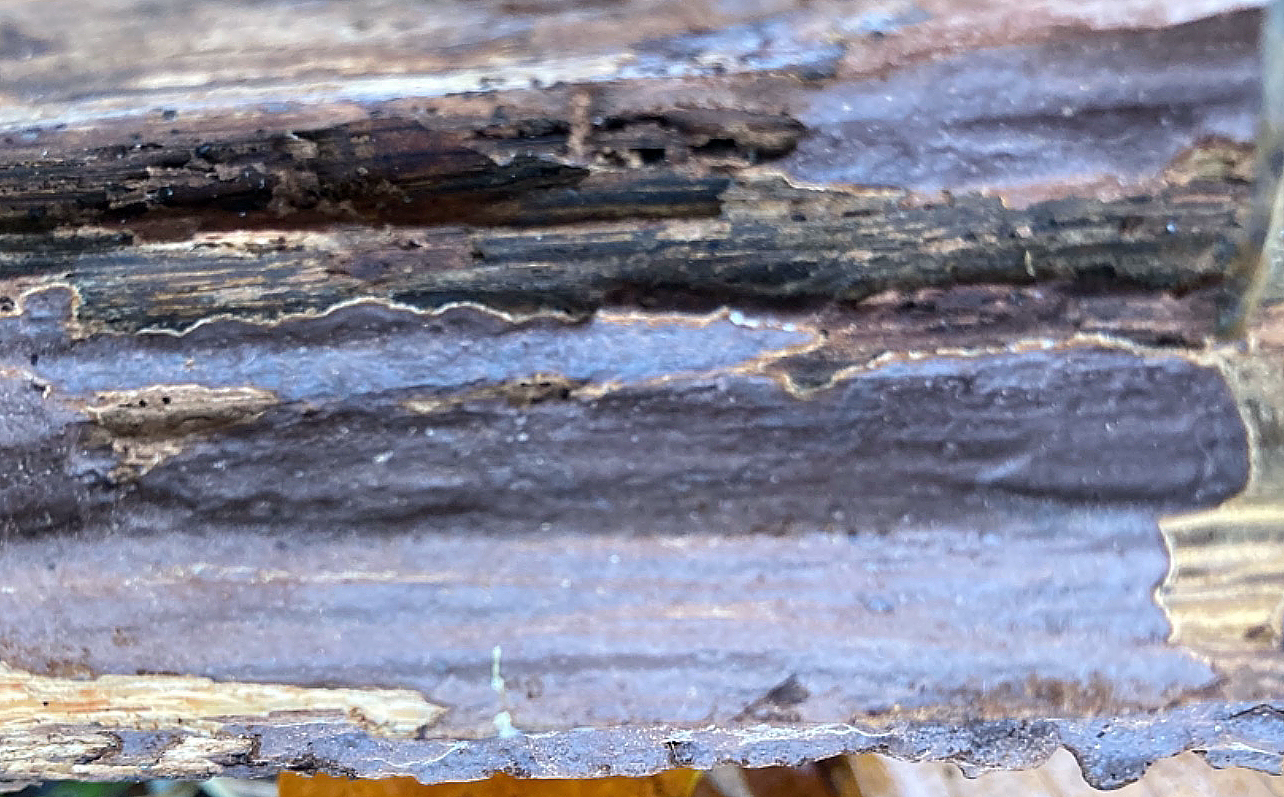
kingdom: Fungi
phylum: Basidiomycota
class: Agaricomycetes
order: Hymenochaetales
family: Hymenochaetaceae
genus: Hymenochaete
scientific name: Hymenochaete fuliginosa
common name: dyster ruslædersvamp
